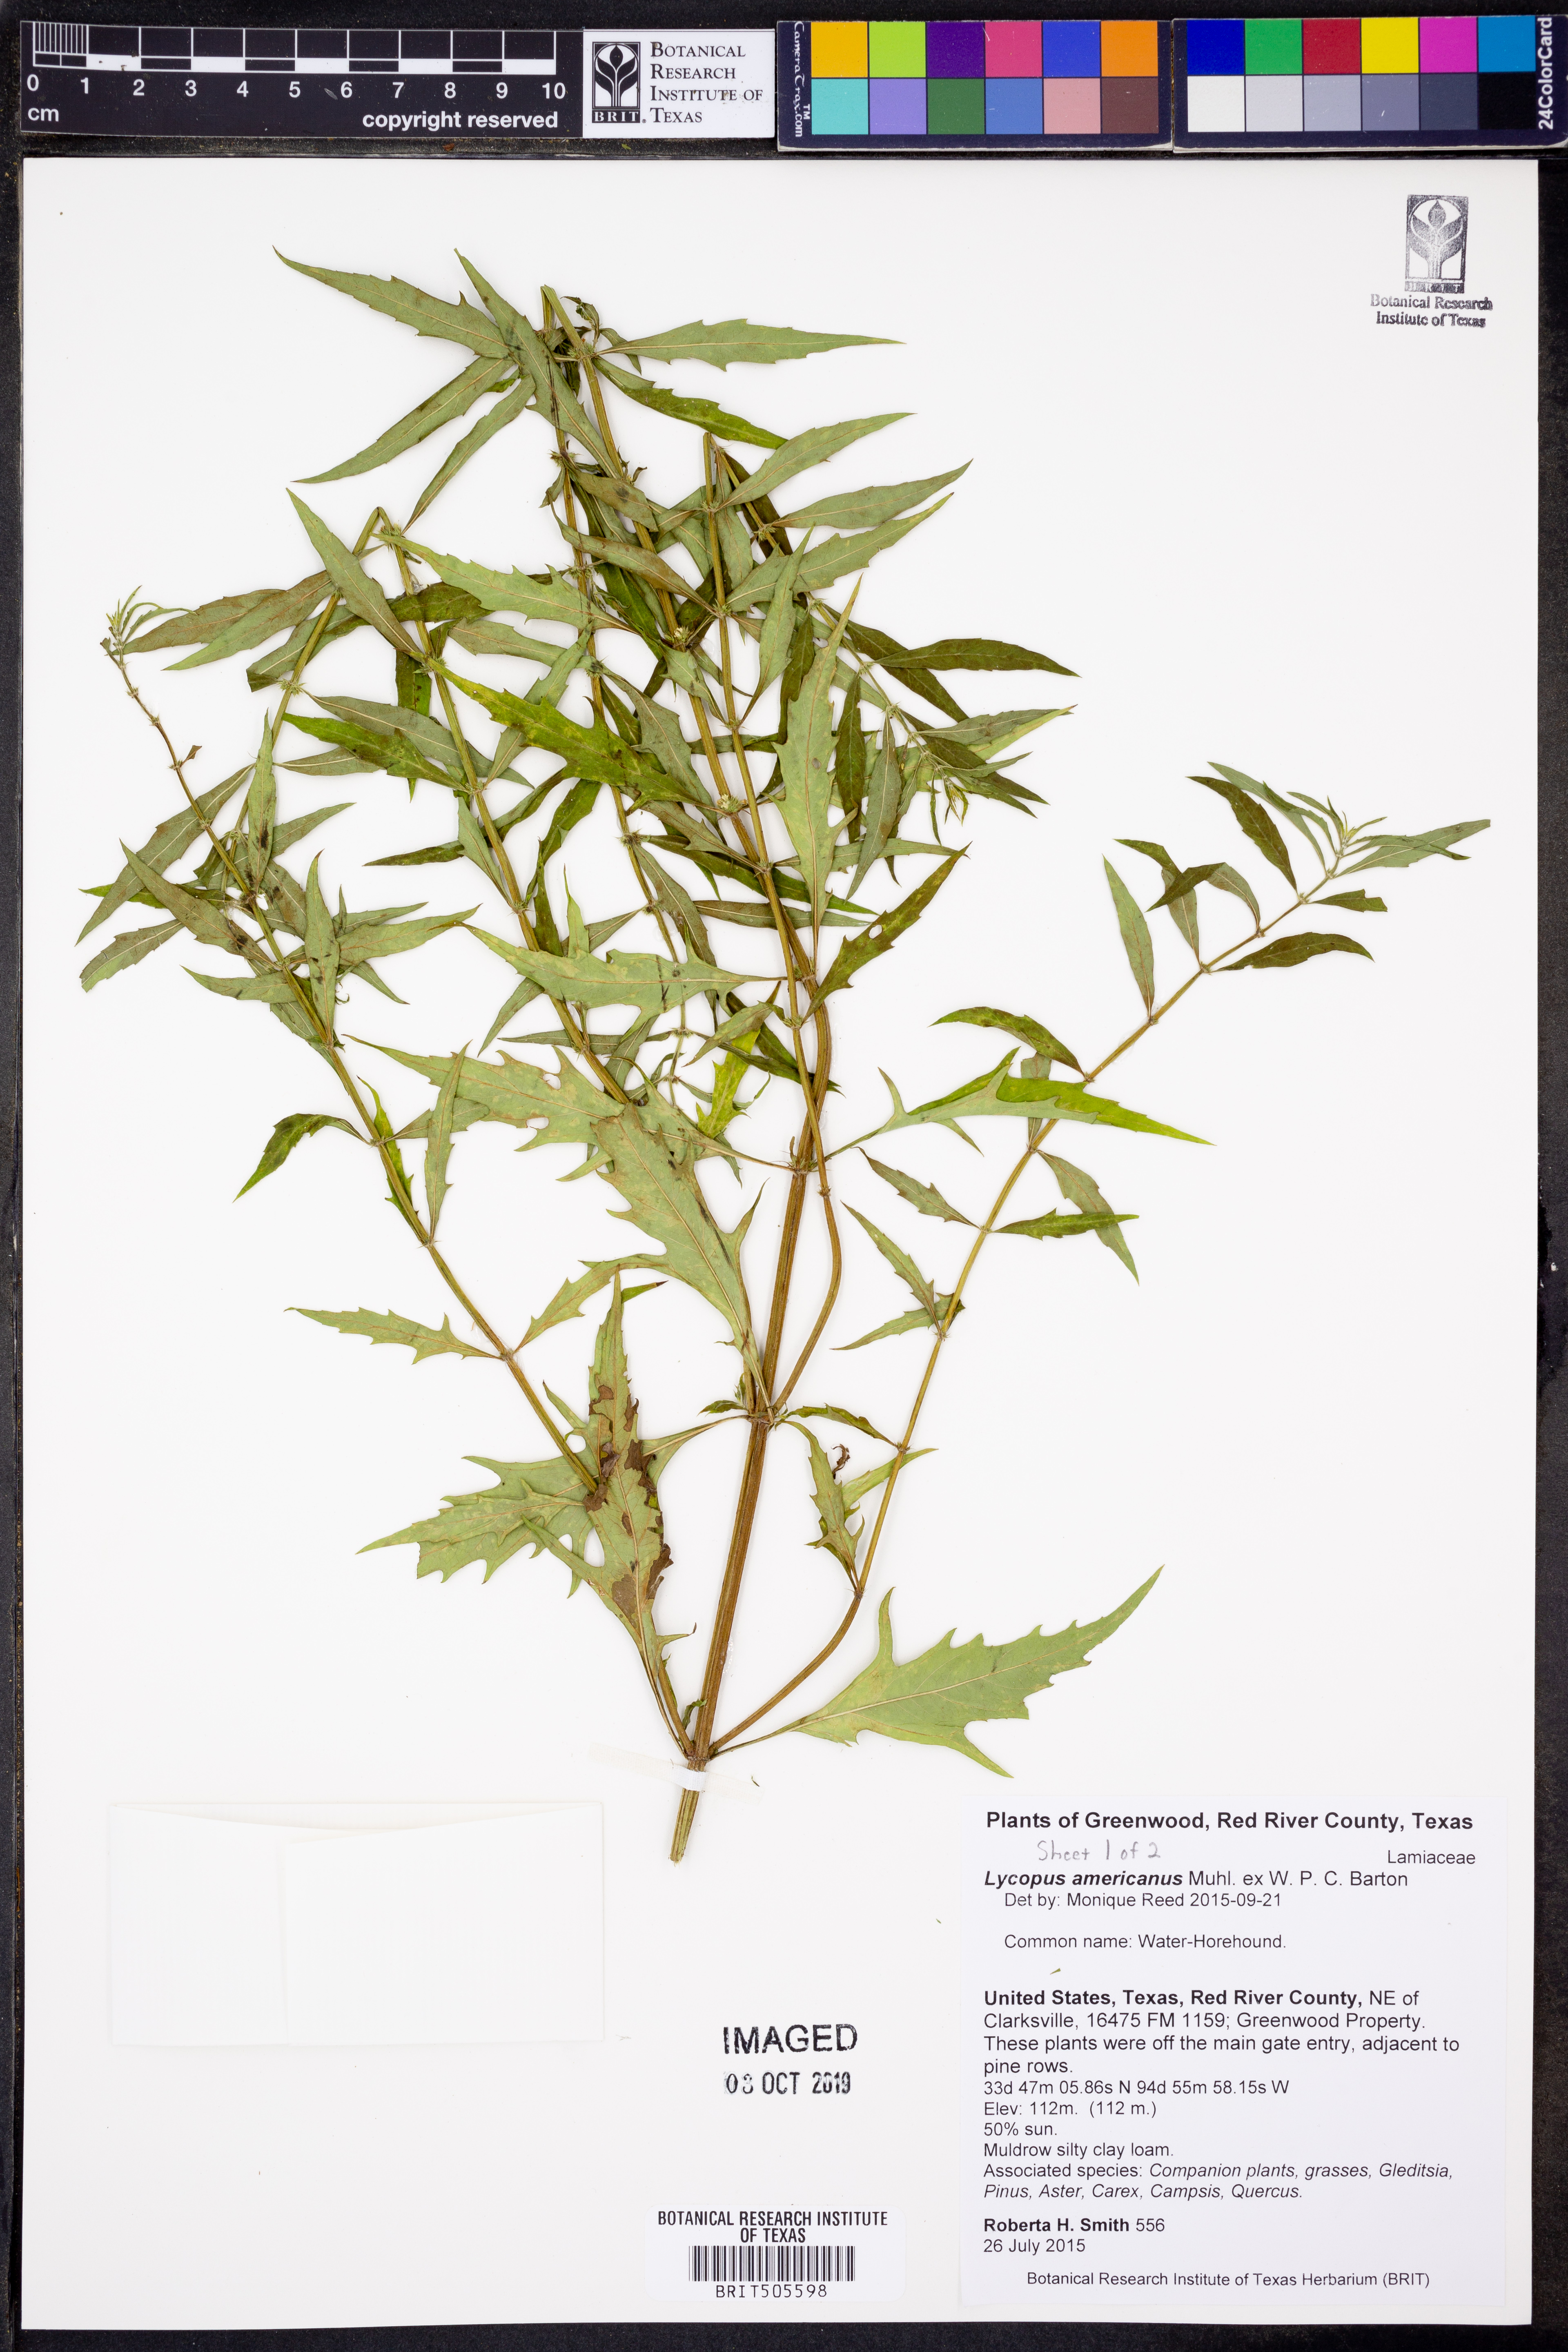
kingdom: Plantae
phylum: Tracheophyta
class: Magnoliopsida
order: Lamiales
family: Lamiaceae
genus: Lycopus
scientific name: Lycopus americanus
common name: American bugleweed
